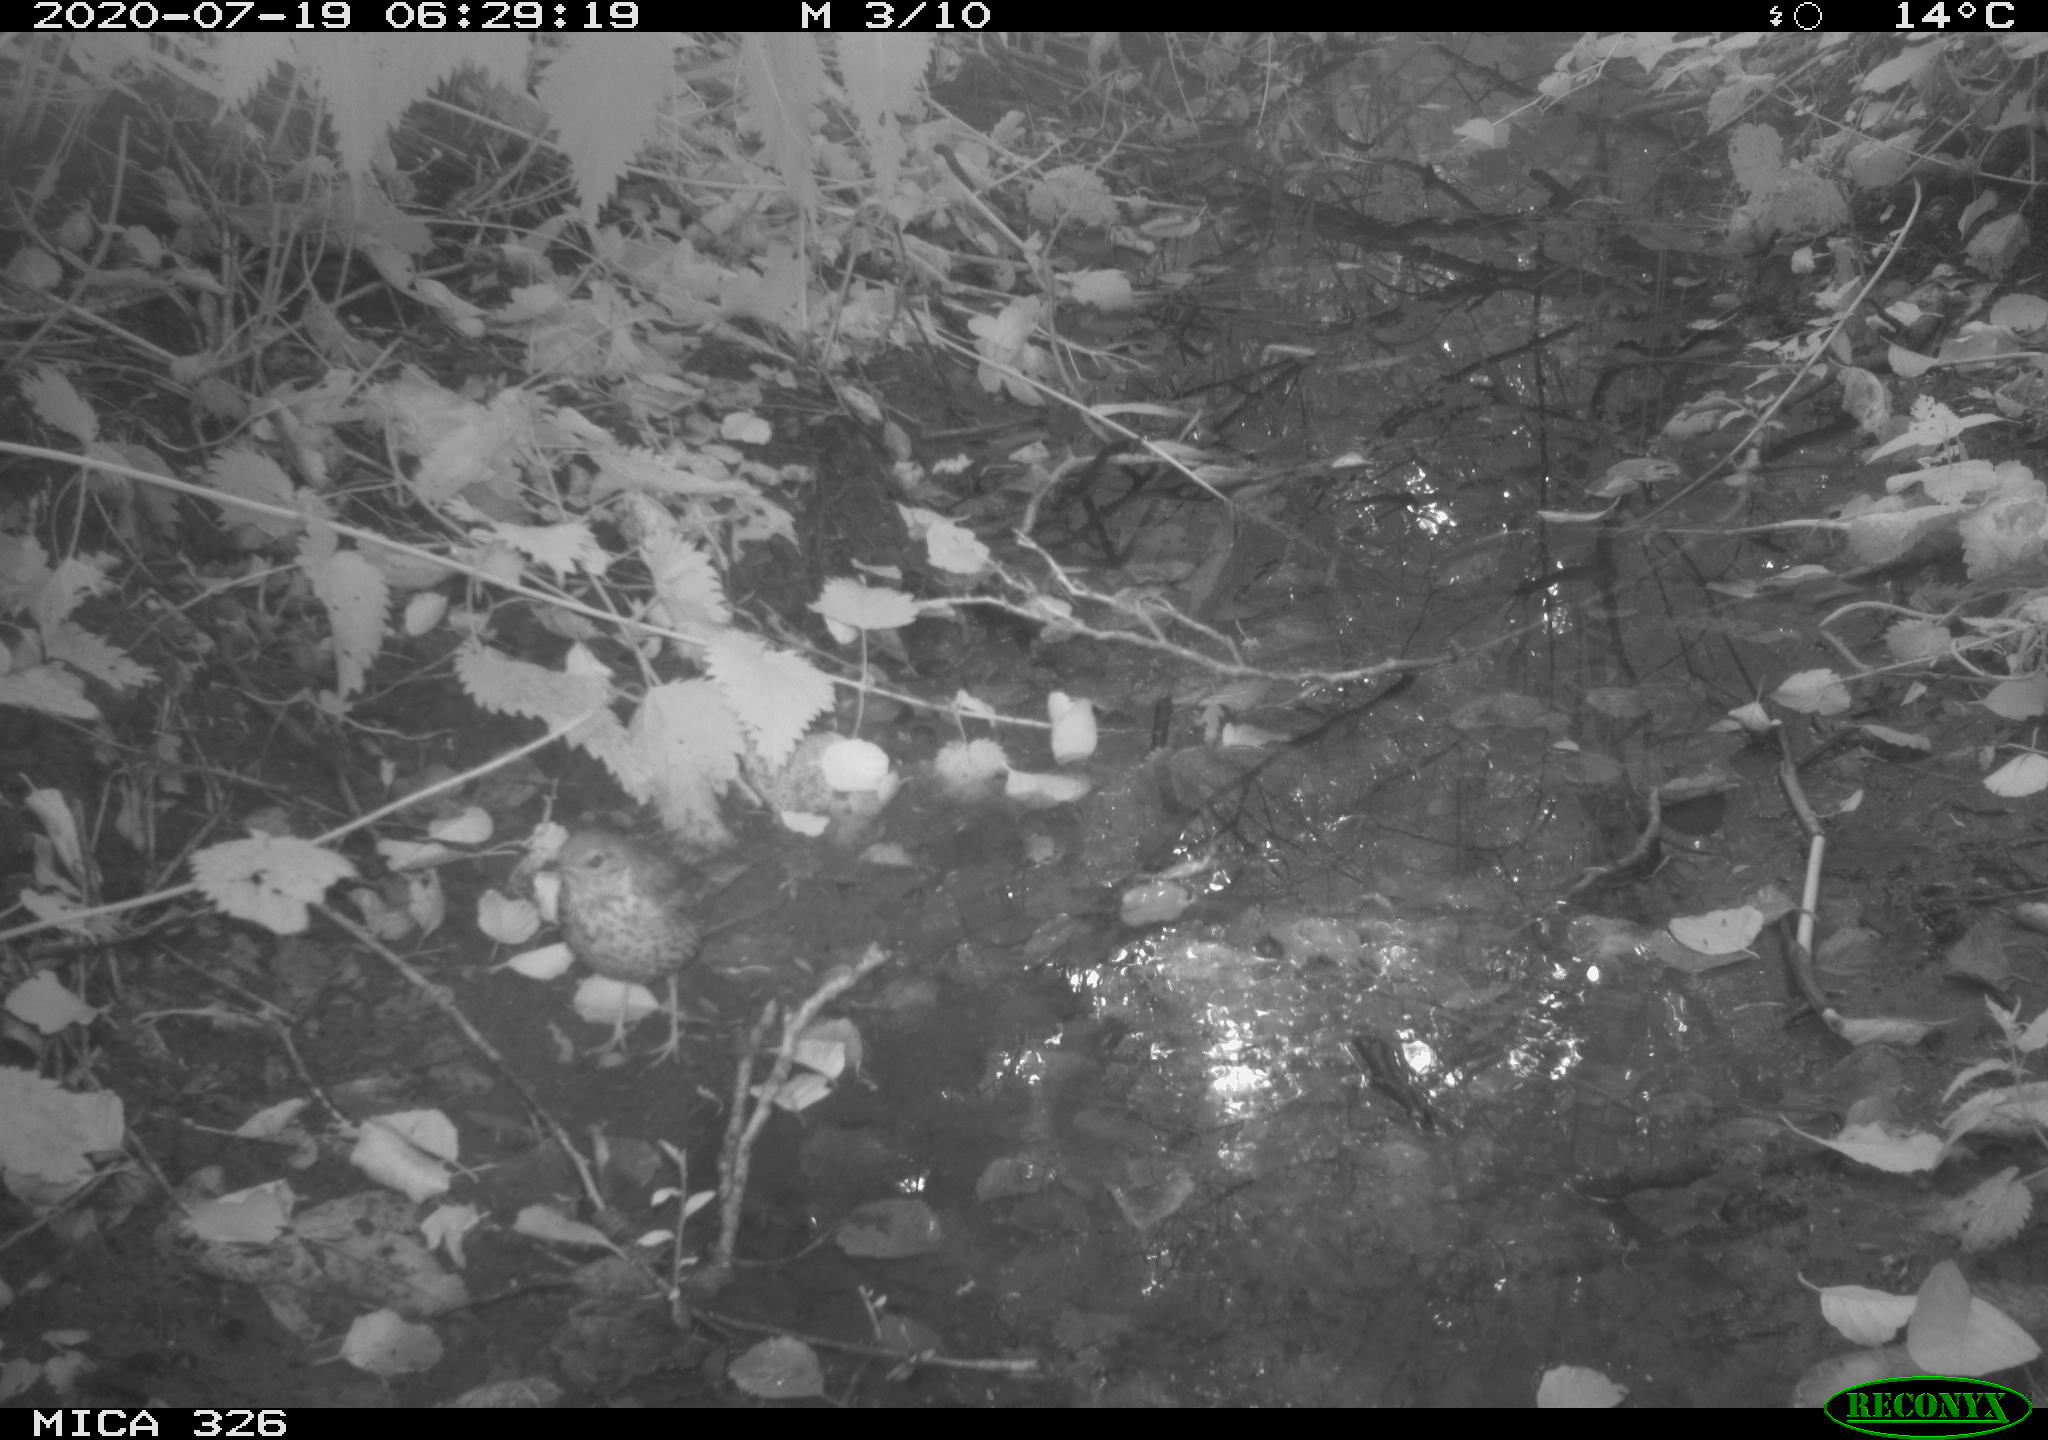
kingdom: Animalia
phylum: Chordata
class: Aves
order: Passeriformes
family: Turdidae
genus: Turdus
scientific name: Turdus philomelos
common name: Song thrush
